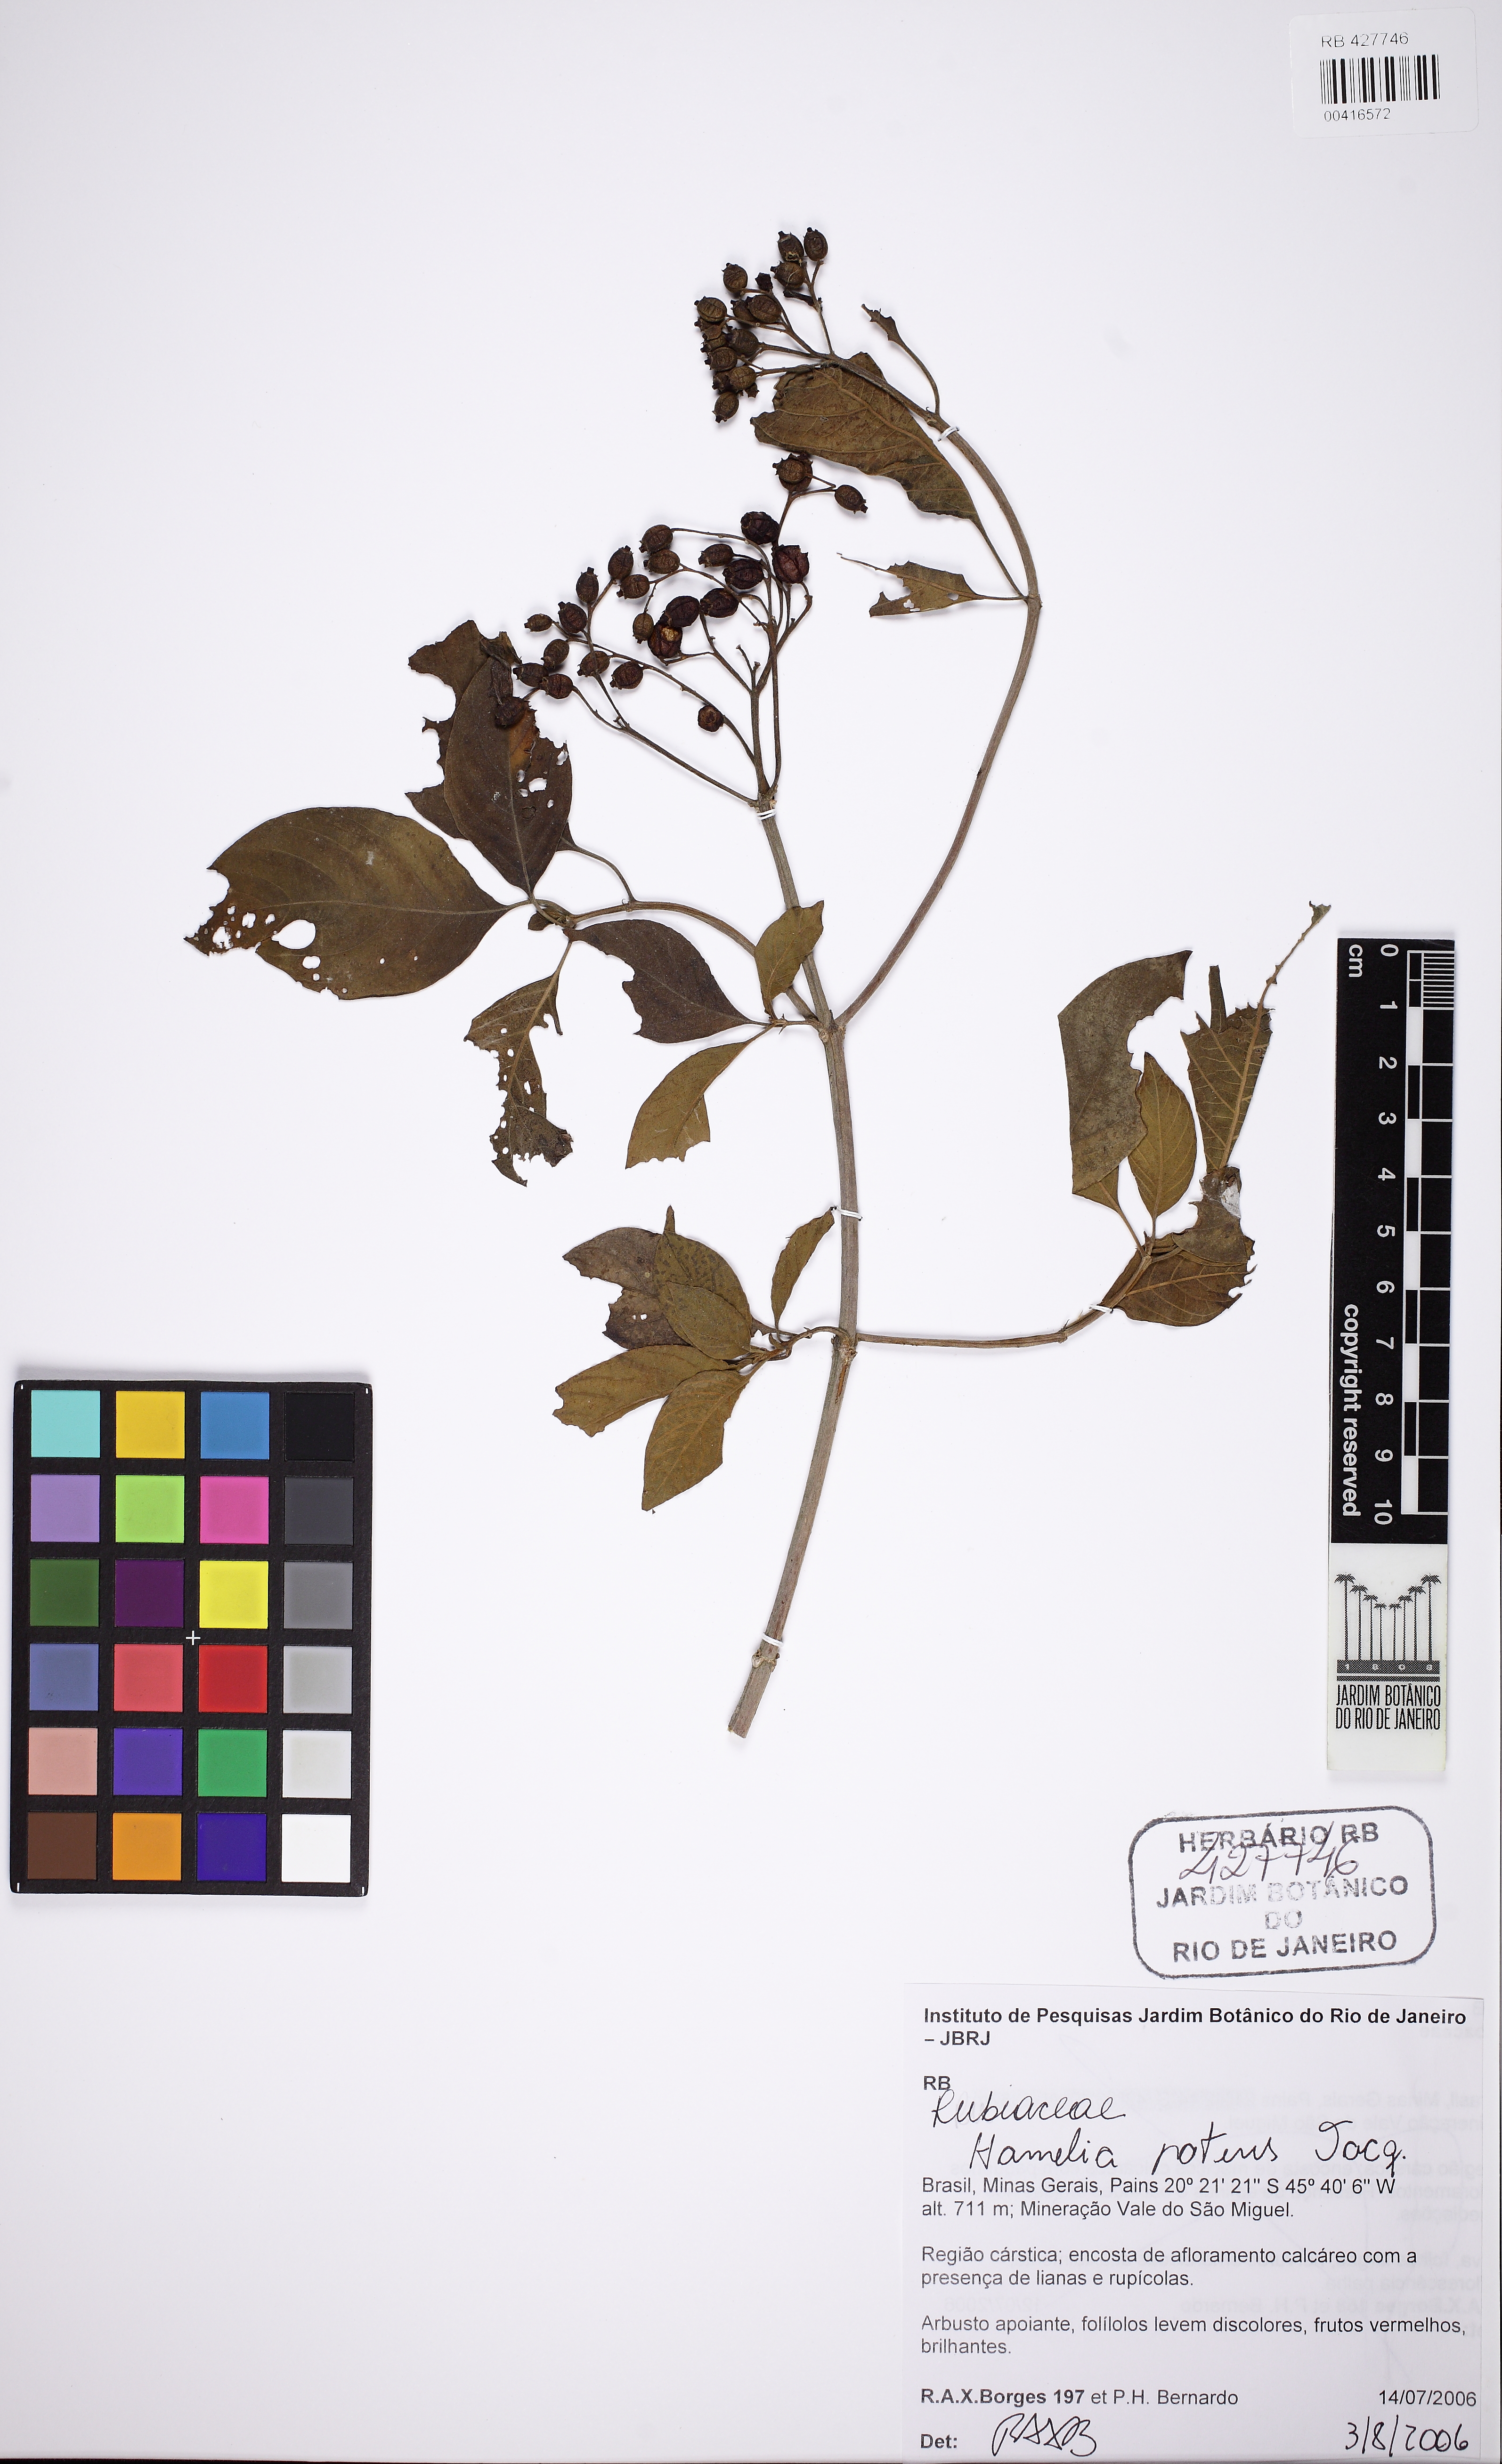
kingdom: Plantae
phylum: Tracheophyta
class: Magnoliopsida
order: Gentianales
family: Rubiaceae
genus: Hamelia
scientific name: Hamelia patens
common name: Redhead
